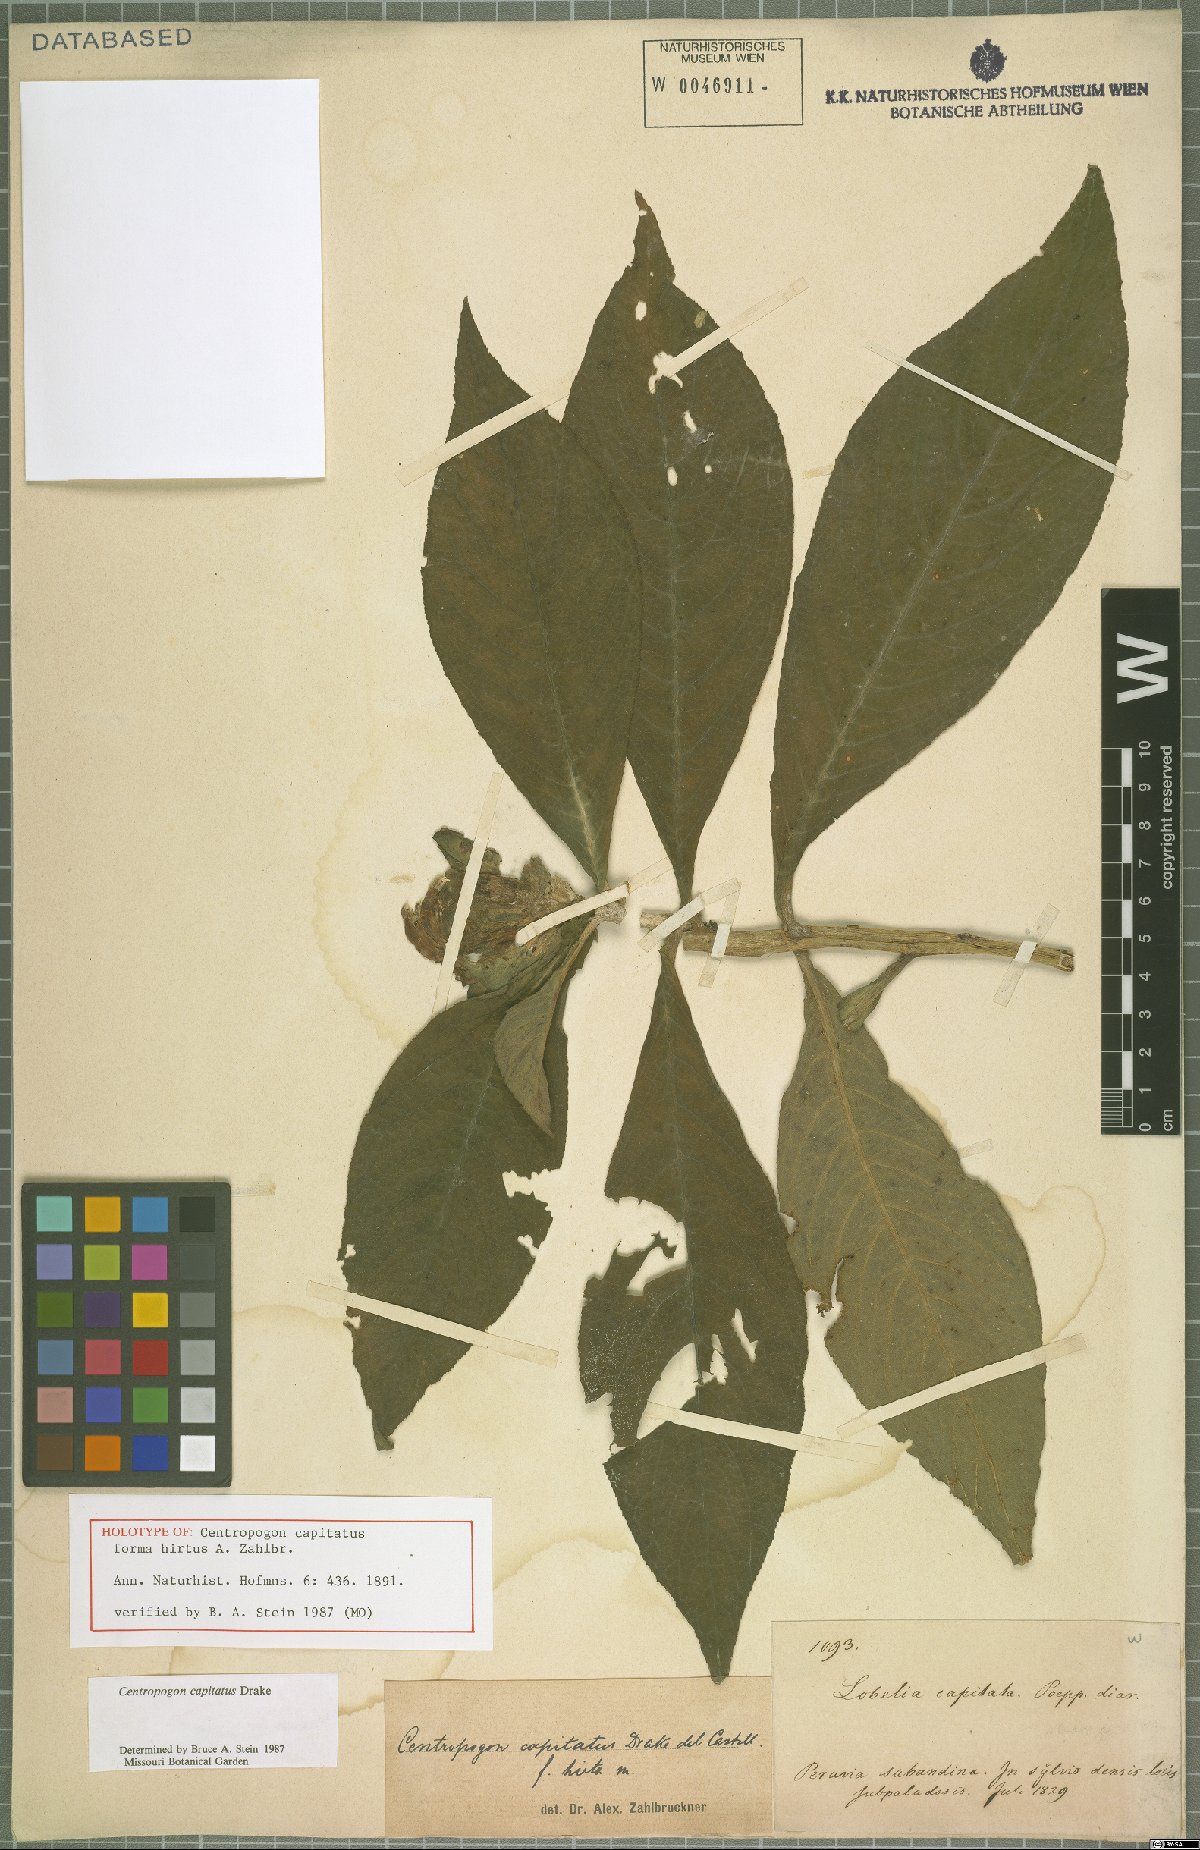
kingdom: Plantae
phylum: Tracheophyta
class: Magnoliopsida
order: Asterales
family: Campanulaceae
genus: Centropogon
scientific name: Centropogon capitatus
